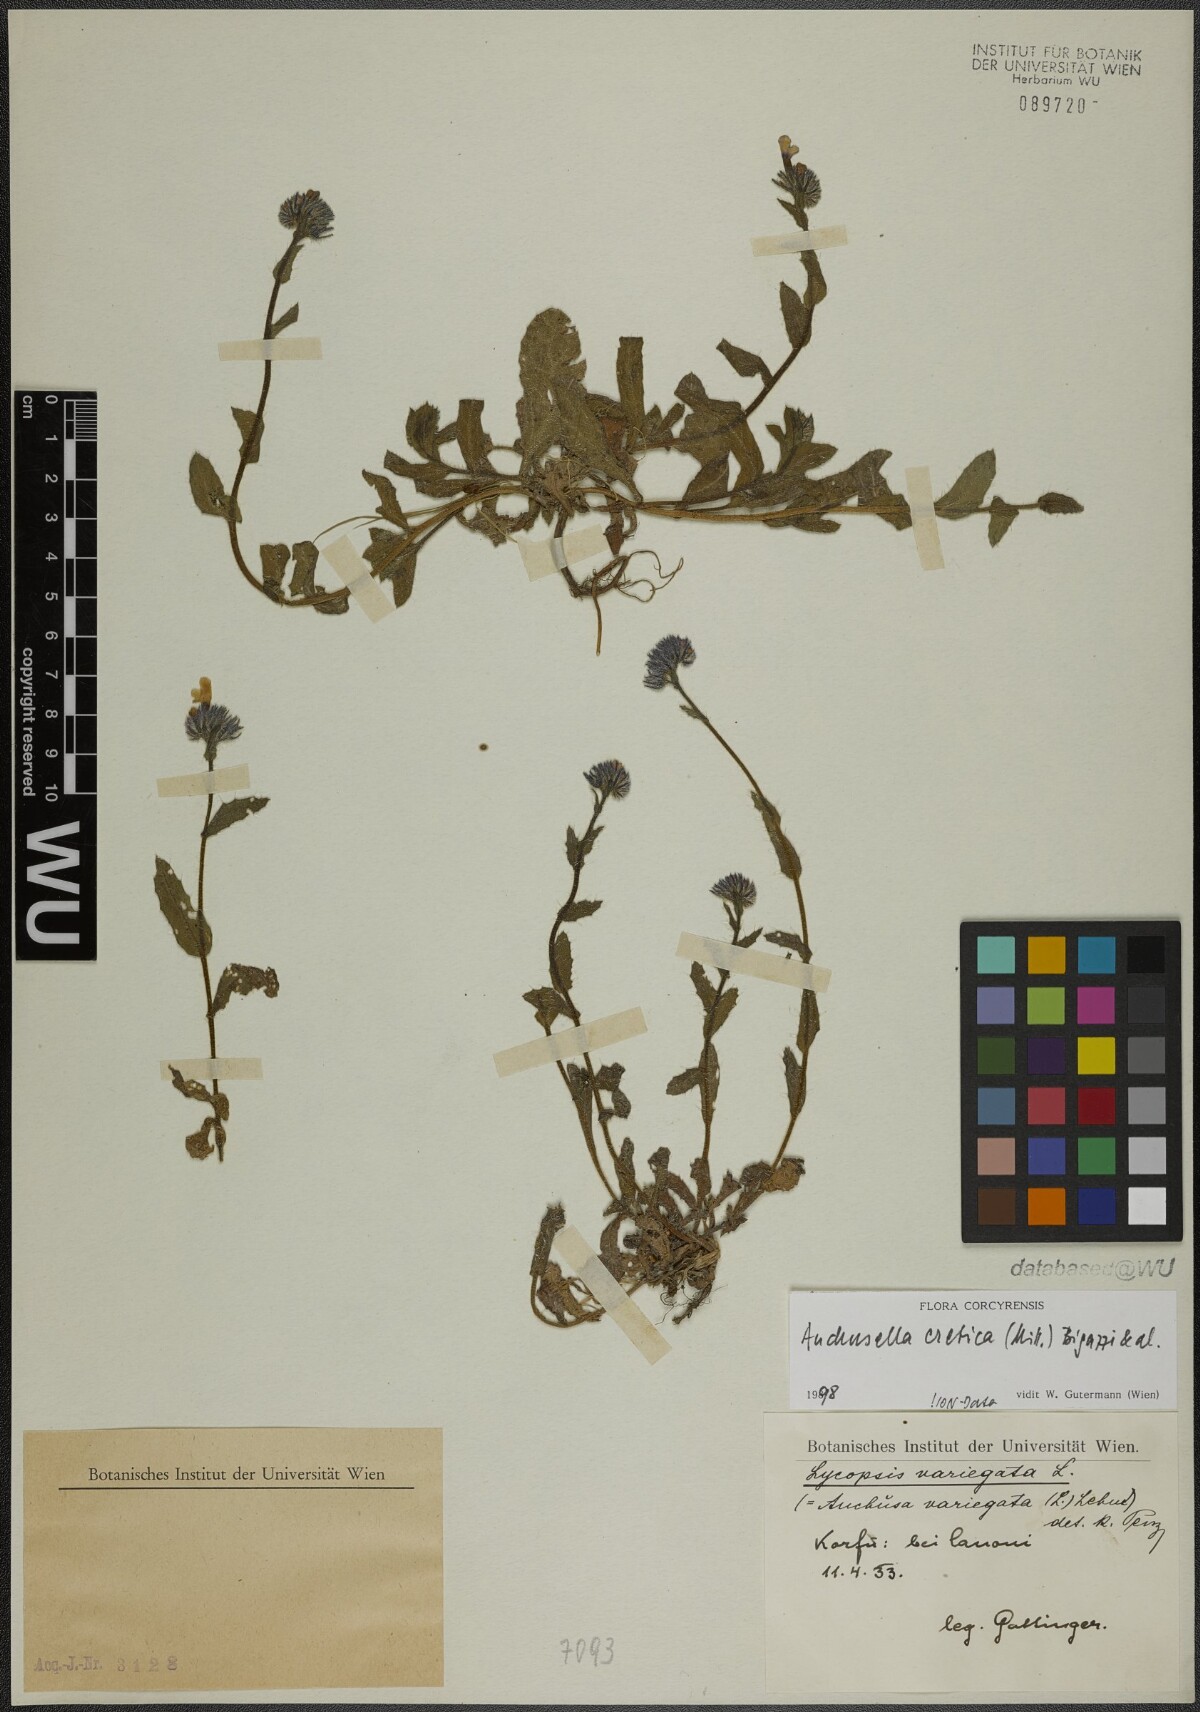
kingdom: Plantae
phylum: Tracheophyta
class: Magnoliopsida
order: Boraginales
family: Boraginaceae
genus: Anchusella
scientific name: Anchusella cretica
